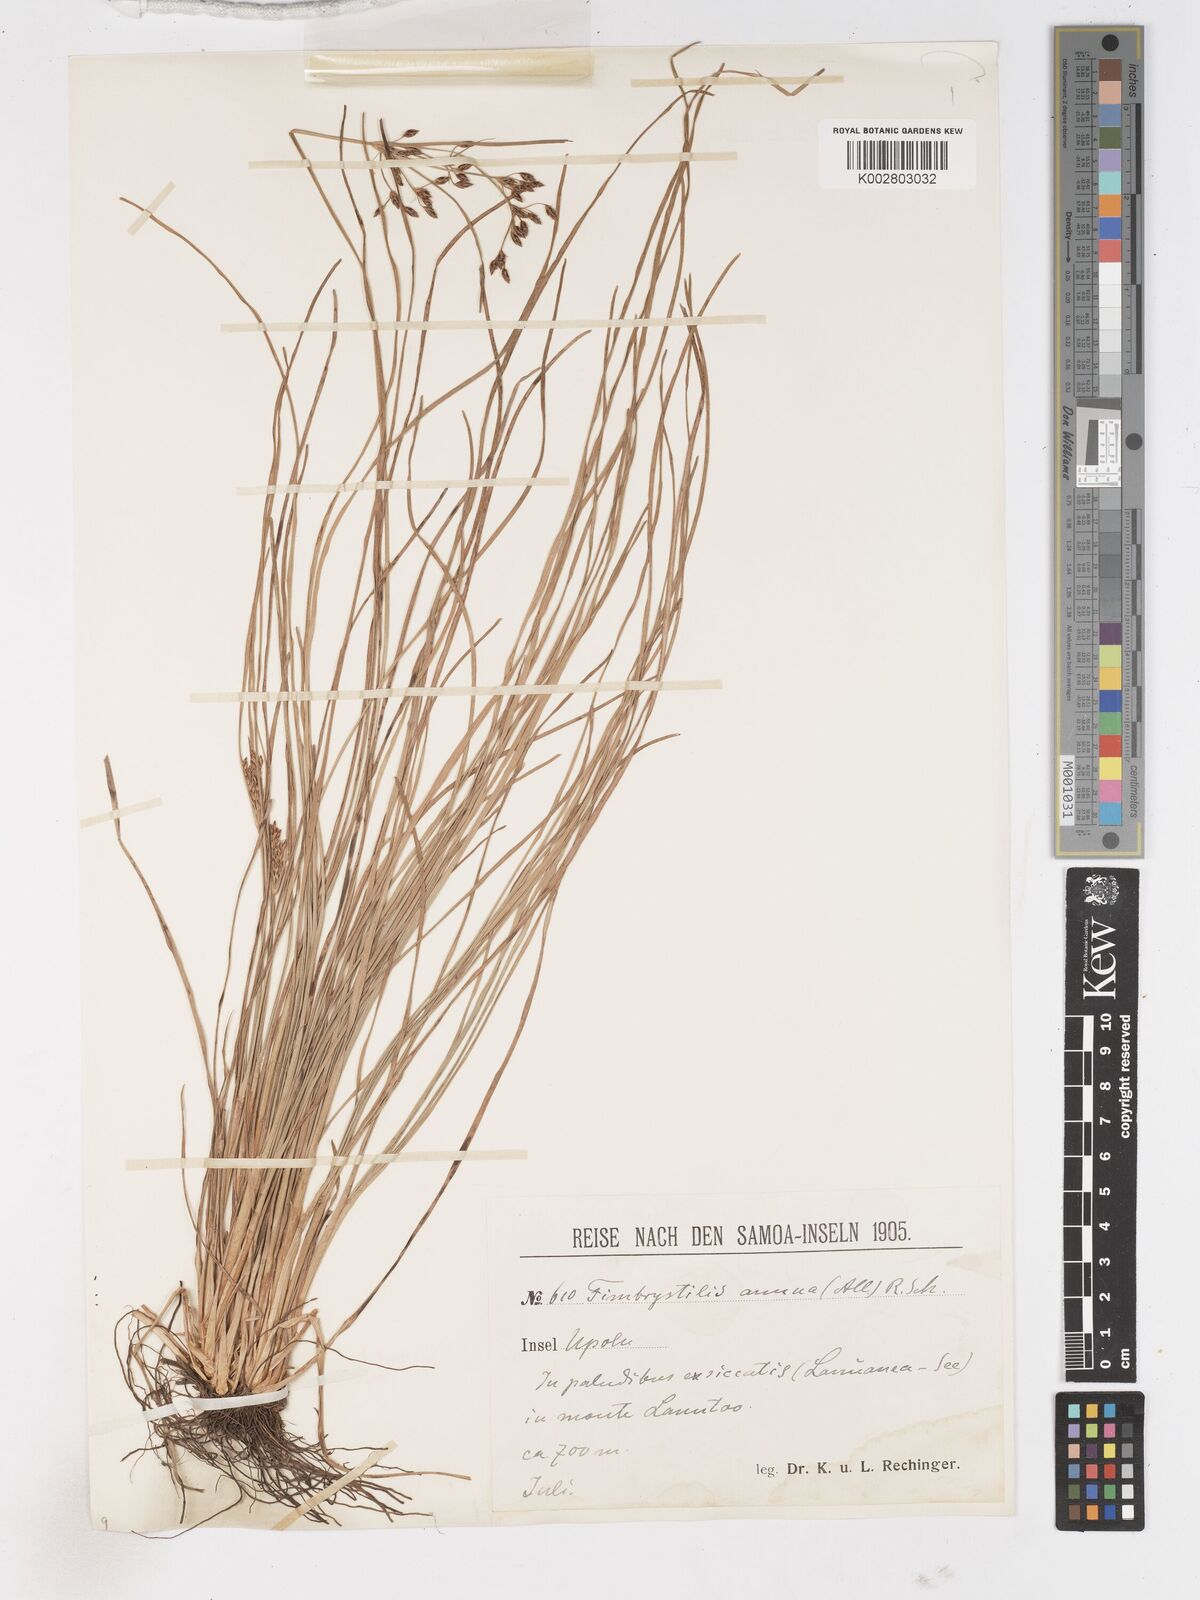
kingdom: Plantae
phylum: Tracheophyta
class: Liliopsida
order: Poales
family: Cyperaceae
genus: Fimbristylis
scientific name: Fimbristylis dichotoma
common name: Forked fimbry
